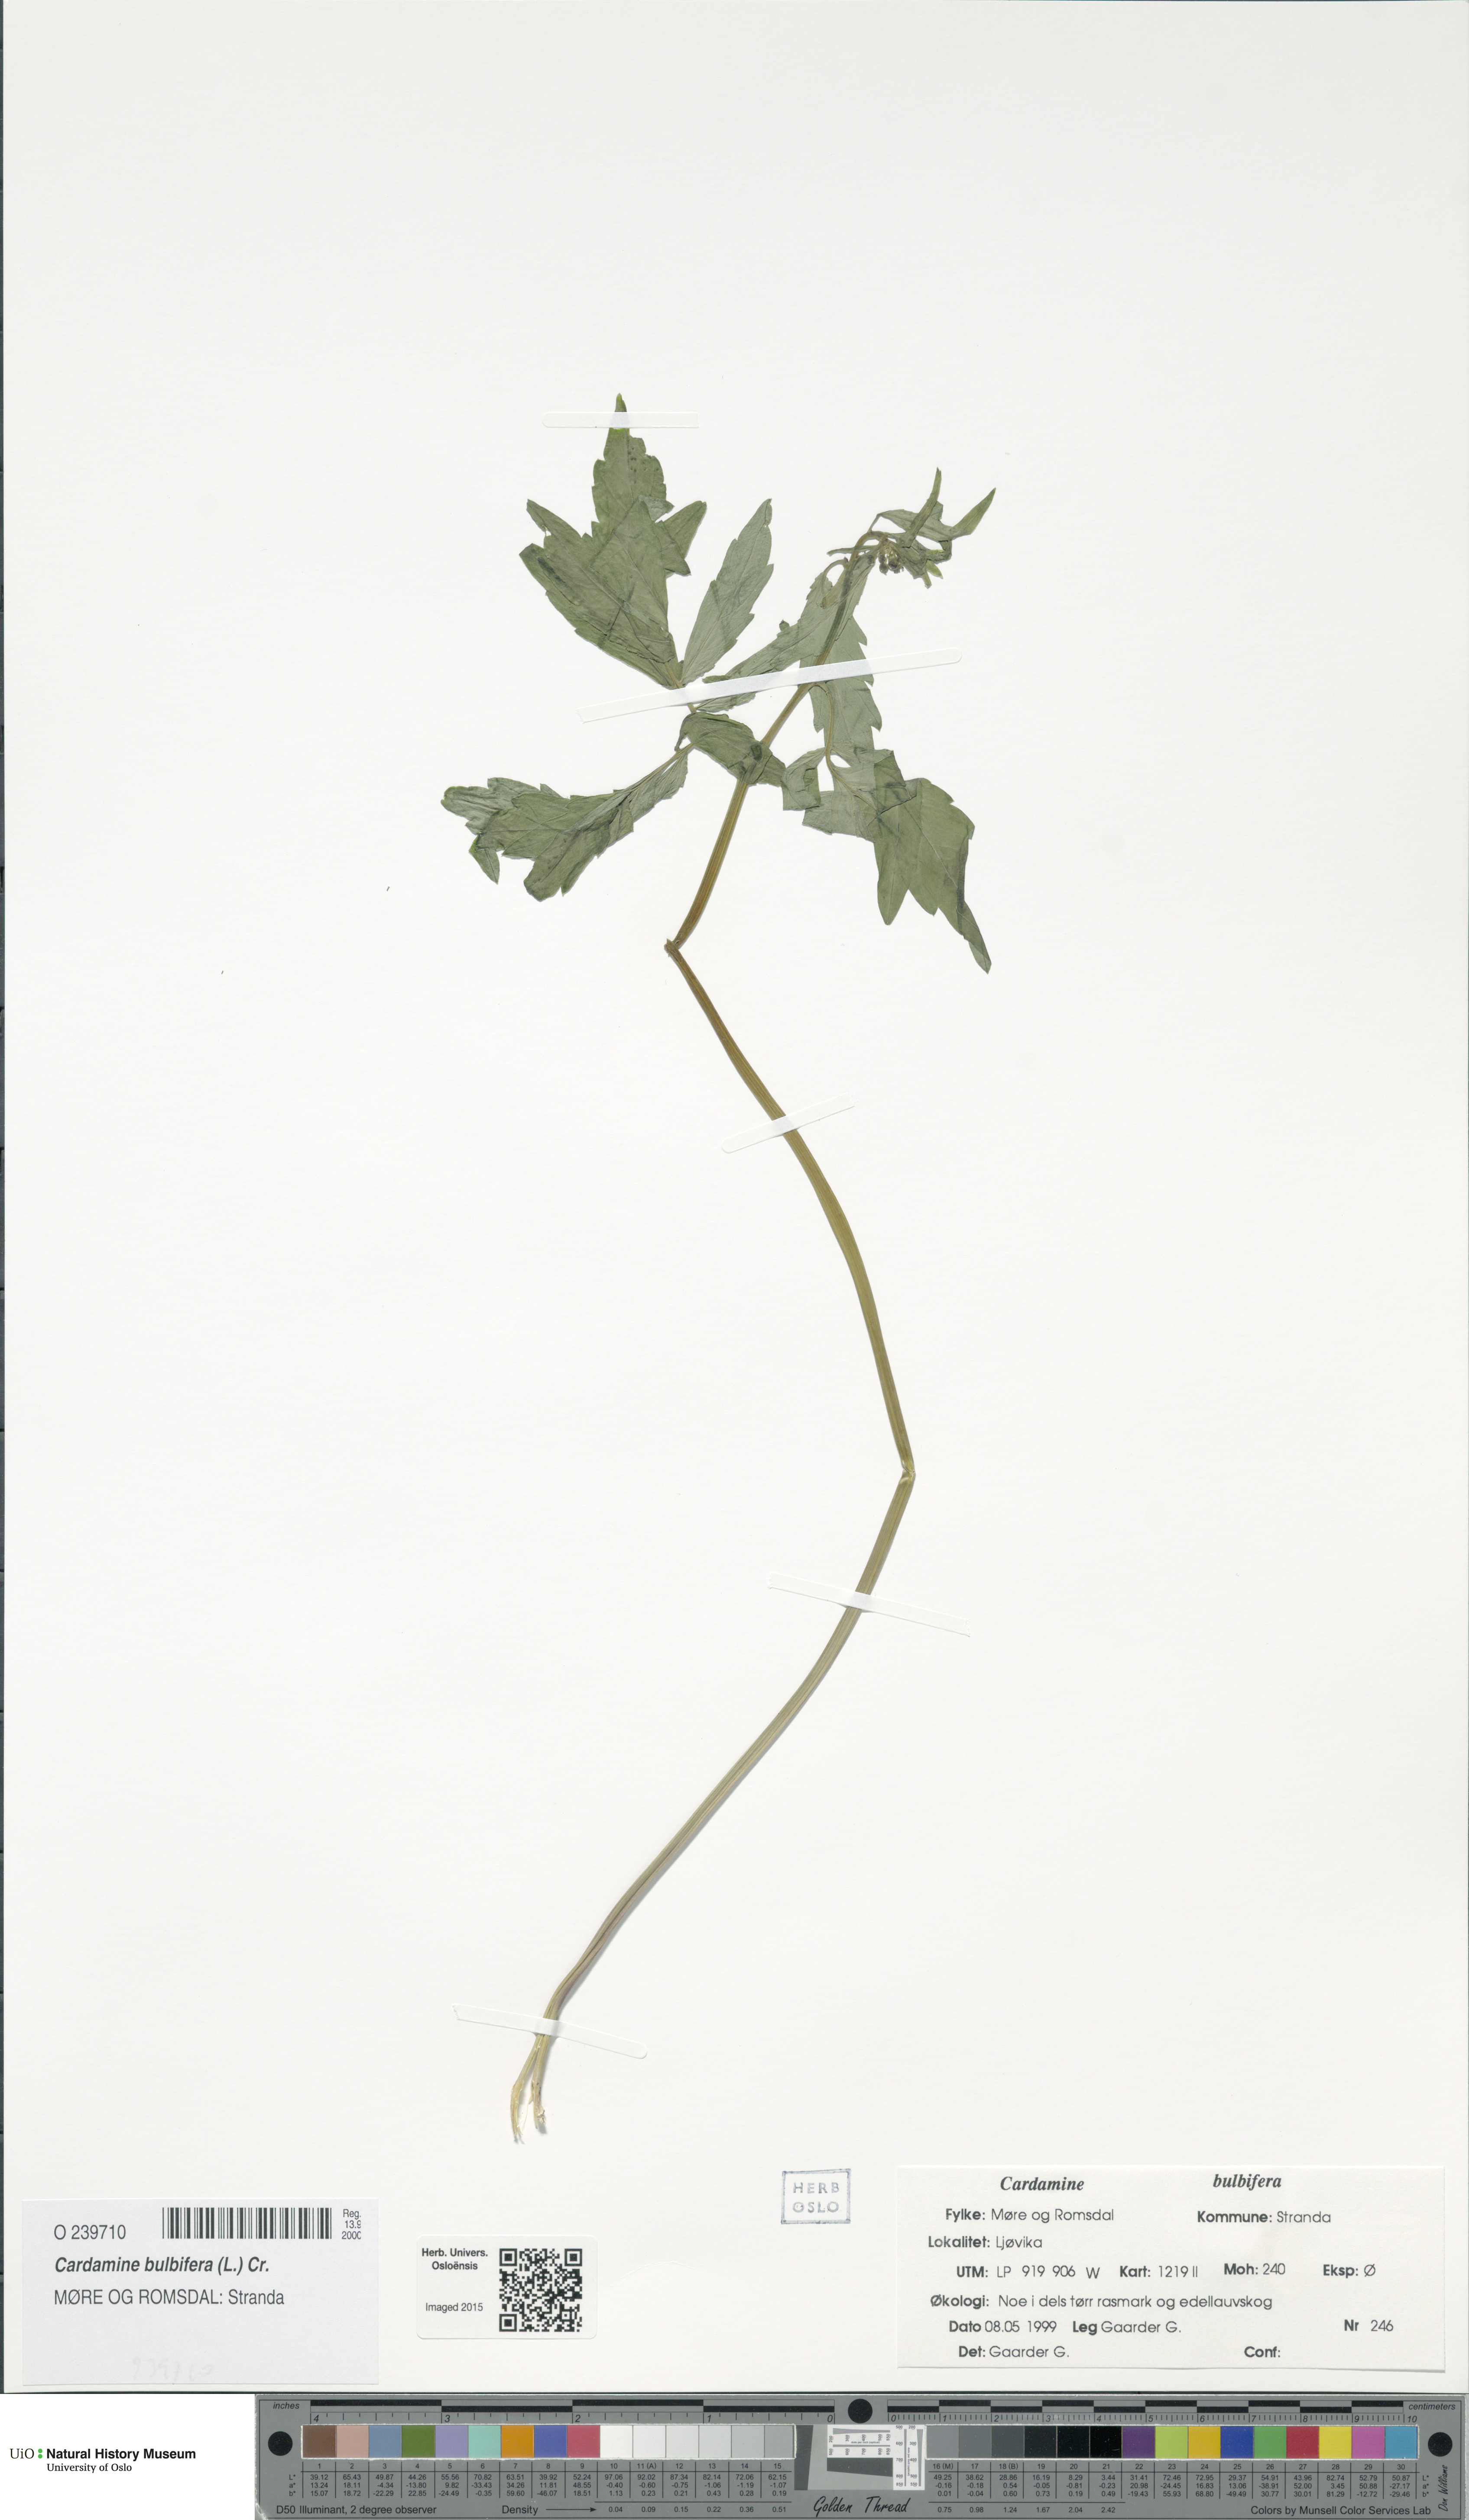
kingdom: Plantae
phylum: Tracheophyta
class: Magnoliopsida
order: Brassicales
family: Brassicaceae
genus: Cardamine
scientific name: Cardamine bulbifera
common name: Coralroot bittercress
